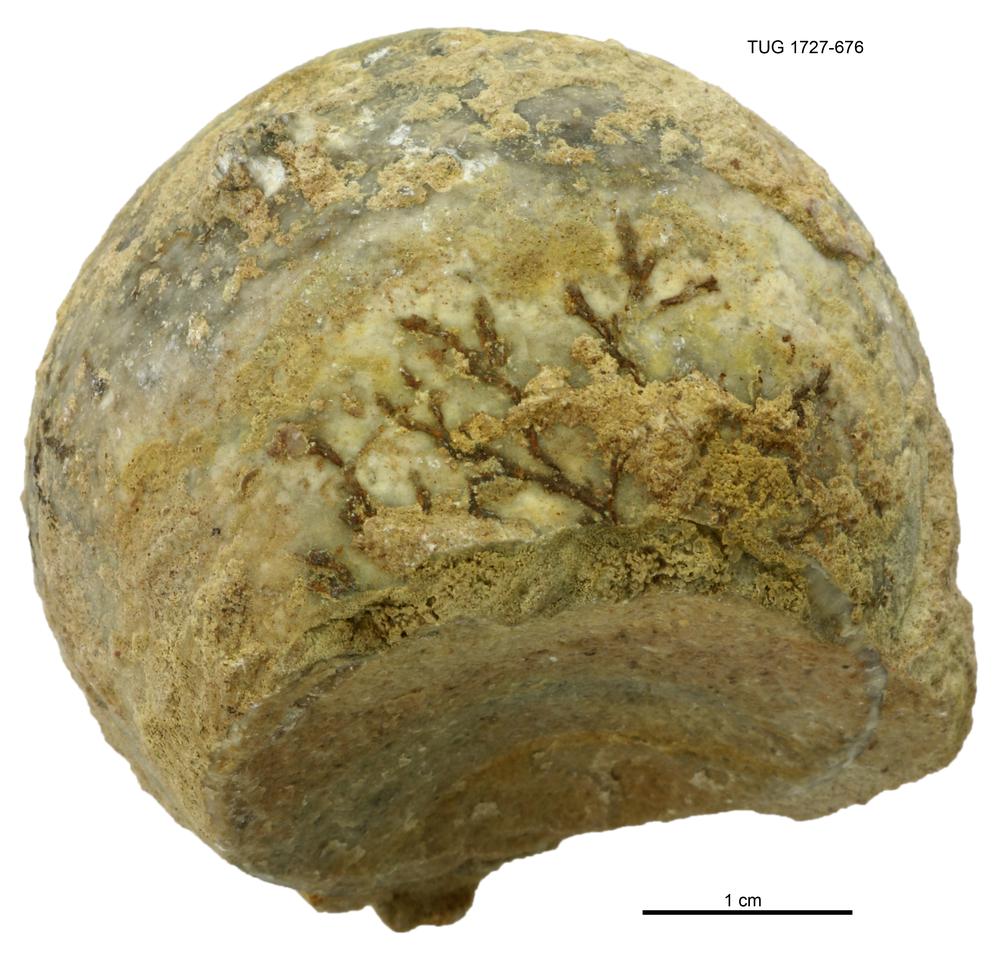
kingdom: Animalia
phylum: Echinodermata
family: Echinosphaeritidae
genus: Echinosphaerites
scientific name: Echinosphaerites Echinus aurantium
